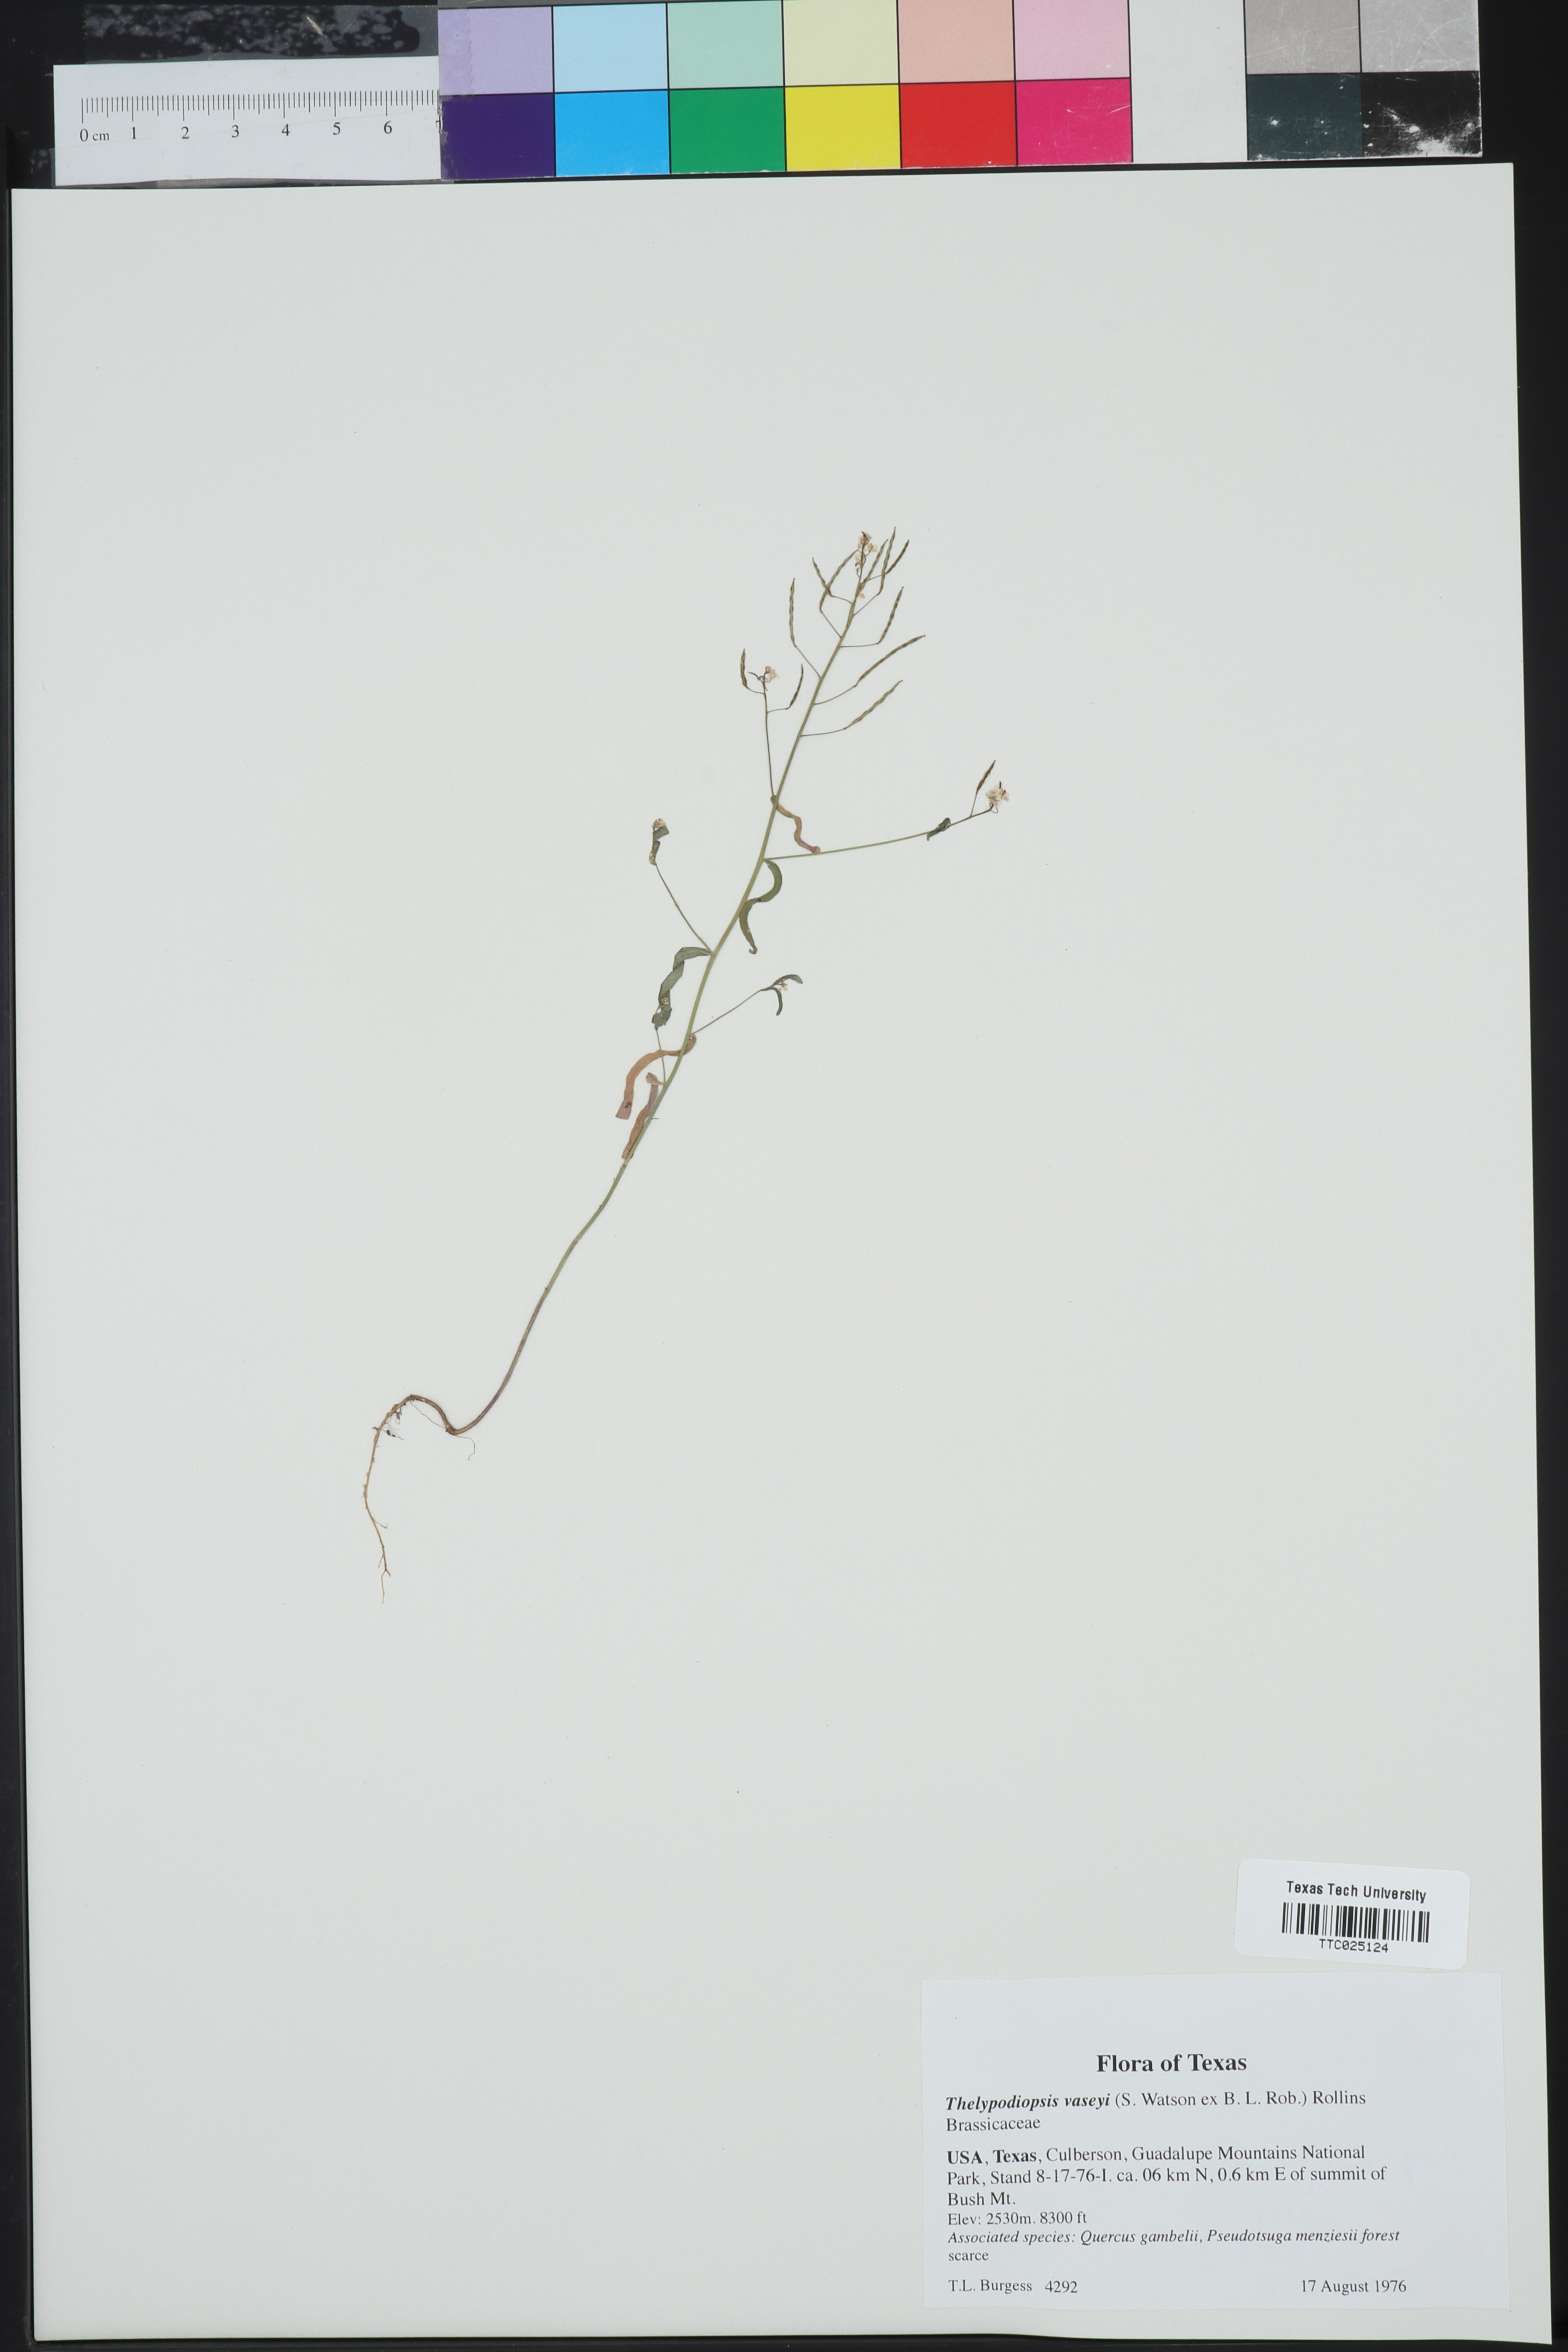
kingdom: Plantae
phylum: Tracheophyta
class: Magnoliopsida
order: Brassicales
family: Brassicaceae
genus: Mostacillastrum
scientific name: Mostacillastrum subauriculatum
